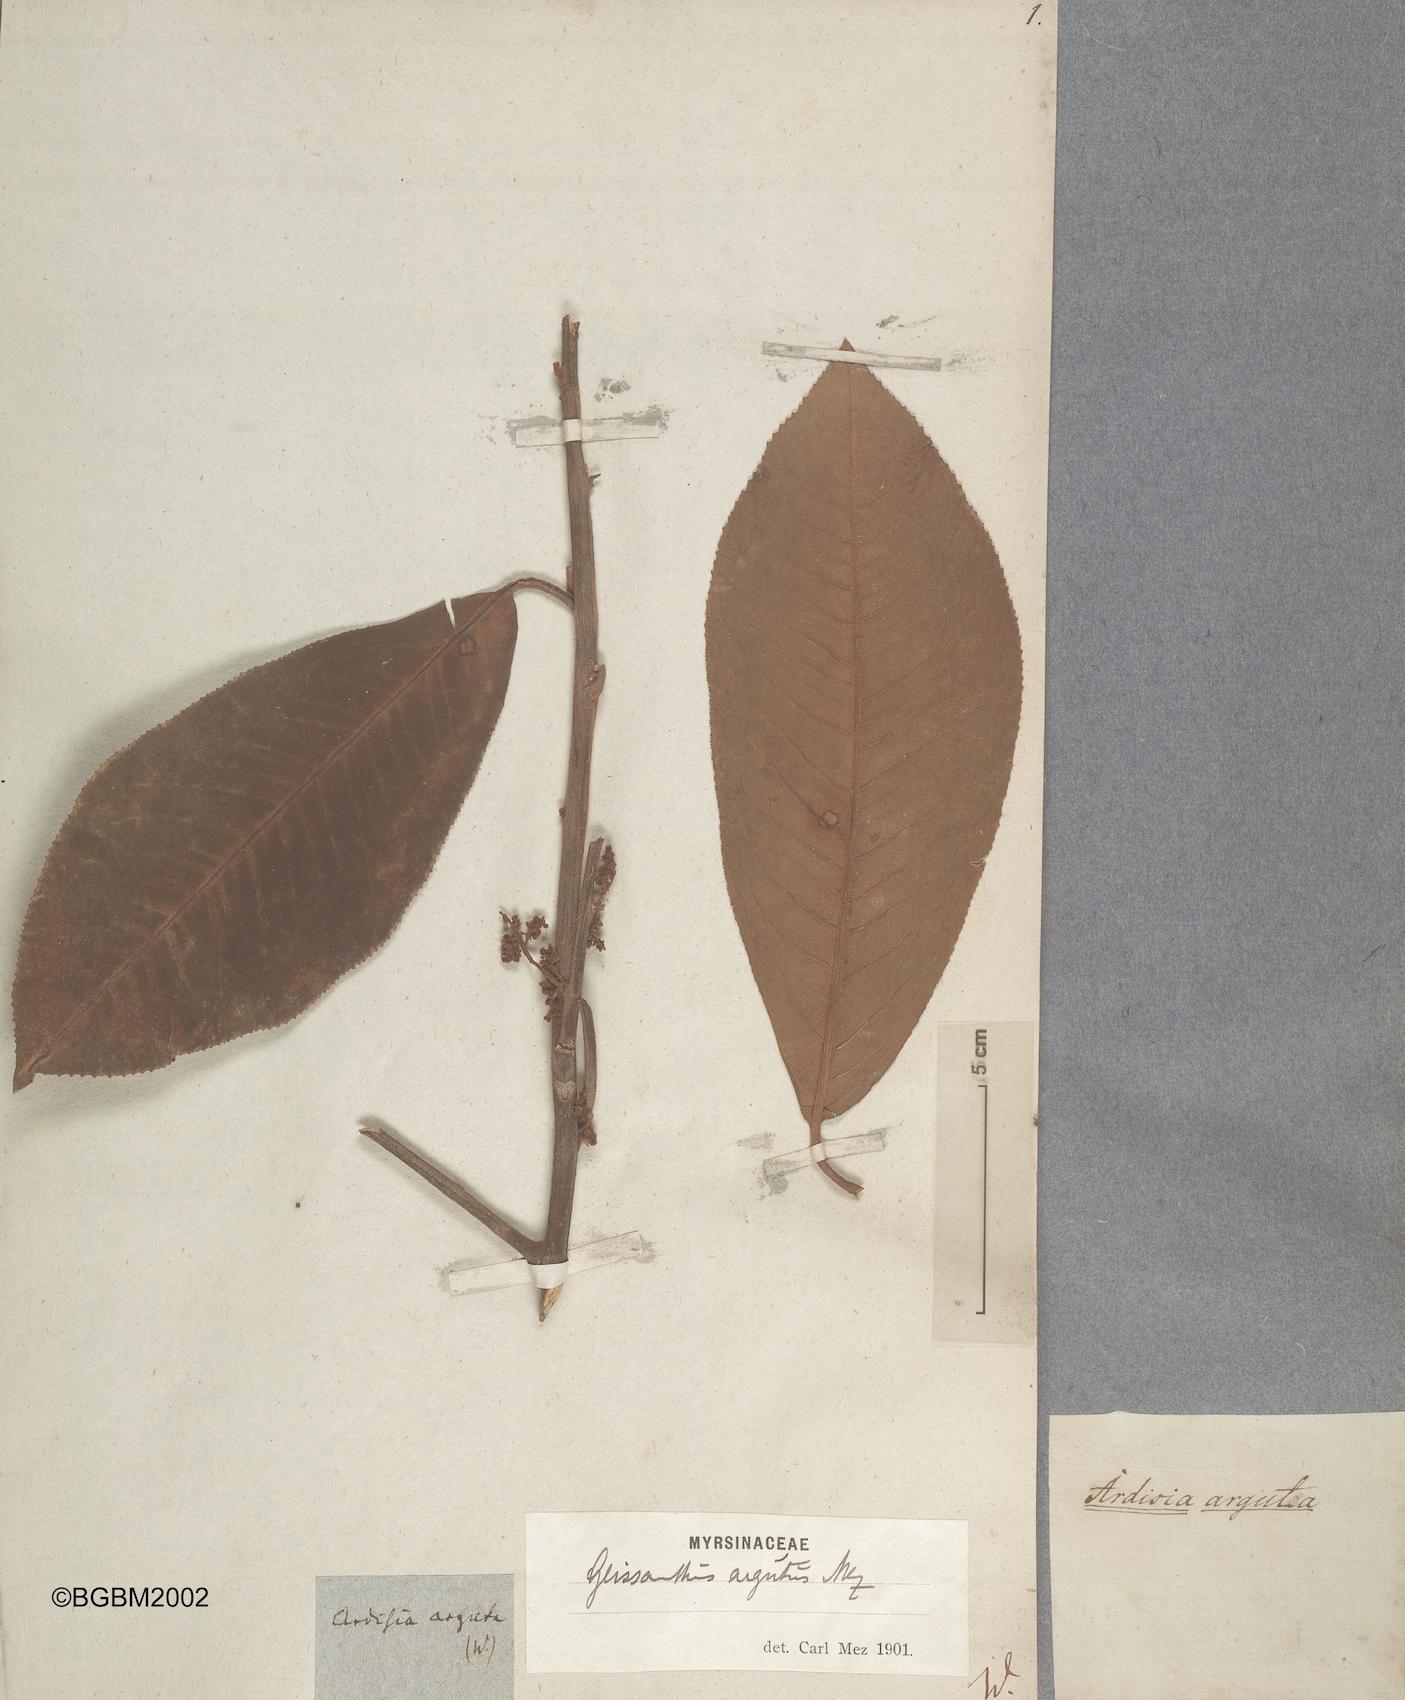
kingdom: Plantae
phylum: Tracheophyta
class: Magnoliopsida
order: Ericales
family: Primulaceae
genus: Geissanthus
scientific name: Geissanthus argutus
